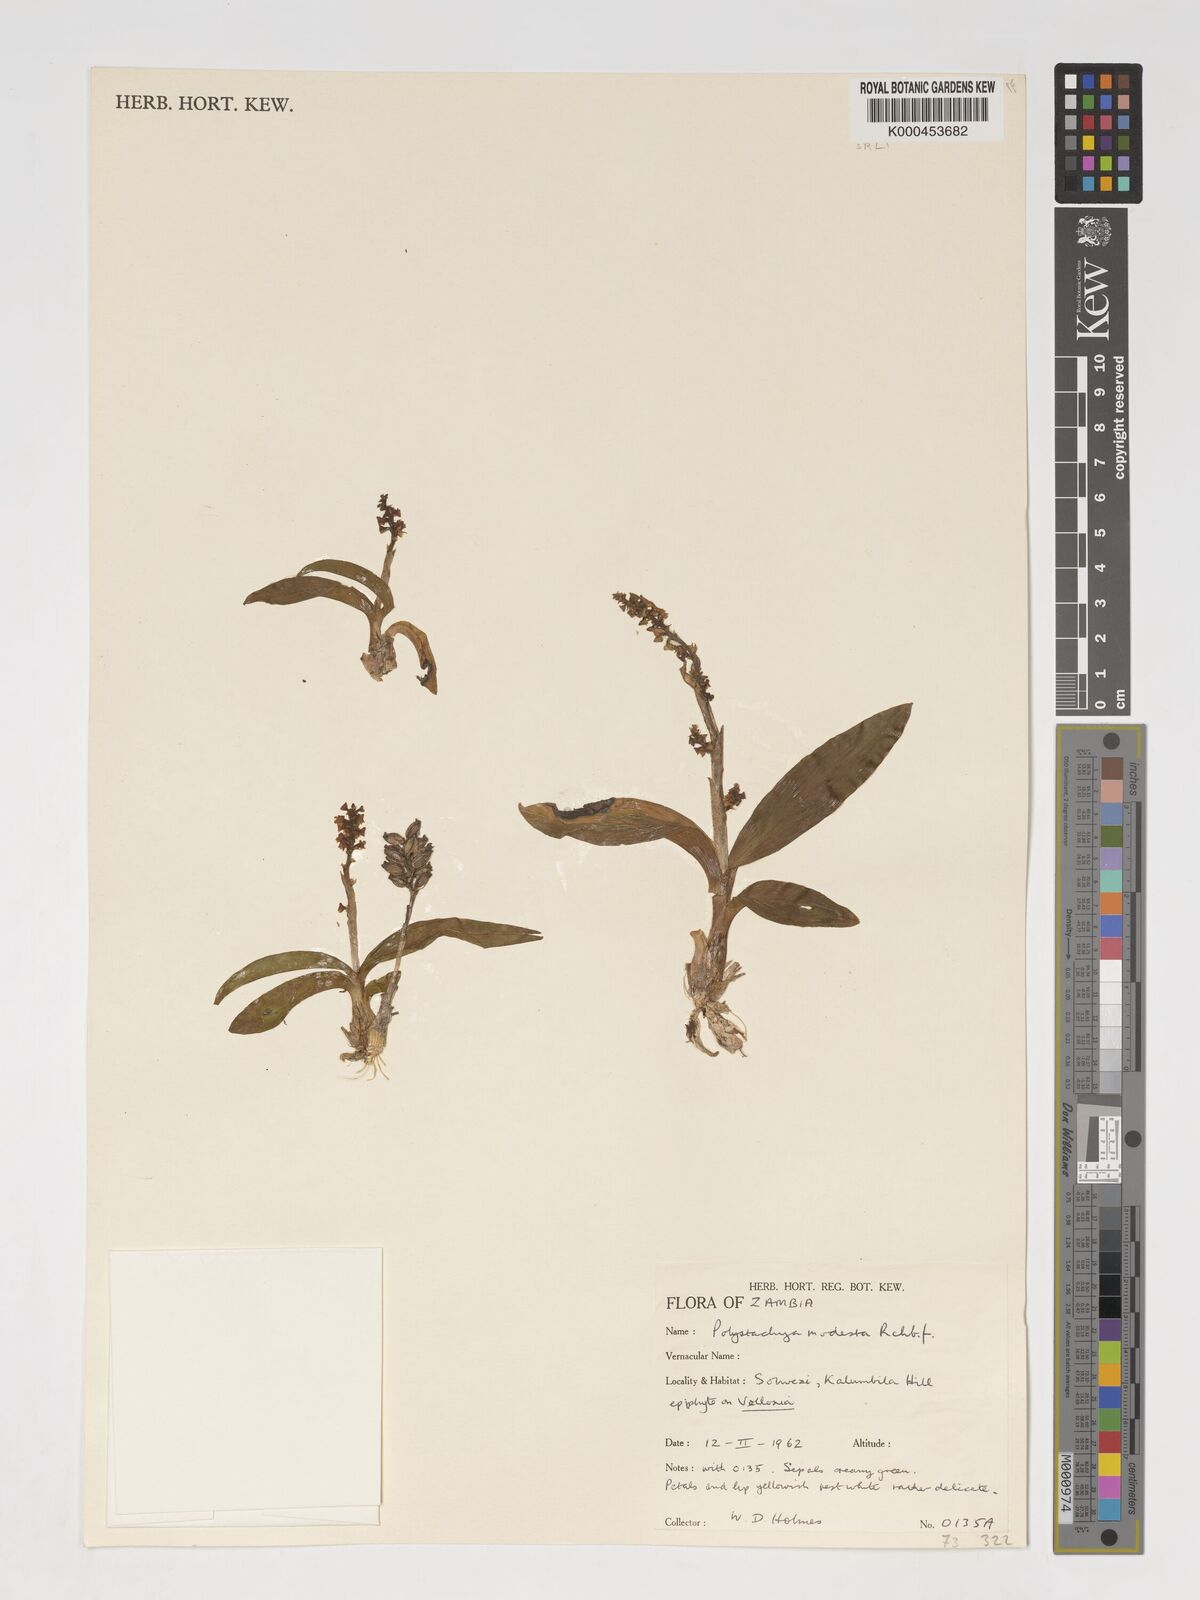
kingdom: Plantae
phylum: Tracheophyta
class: Liliopsida
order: Asparagales
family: Orchidaceae
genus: Polystachya
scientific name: Polystachya modesta
